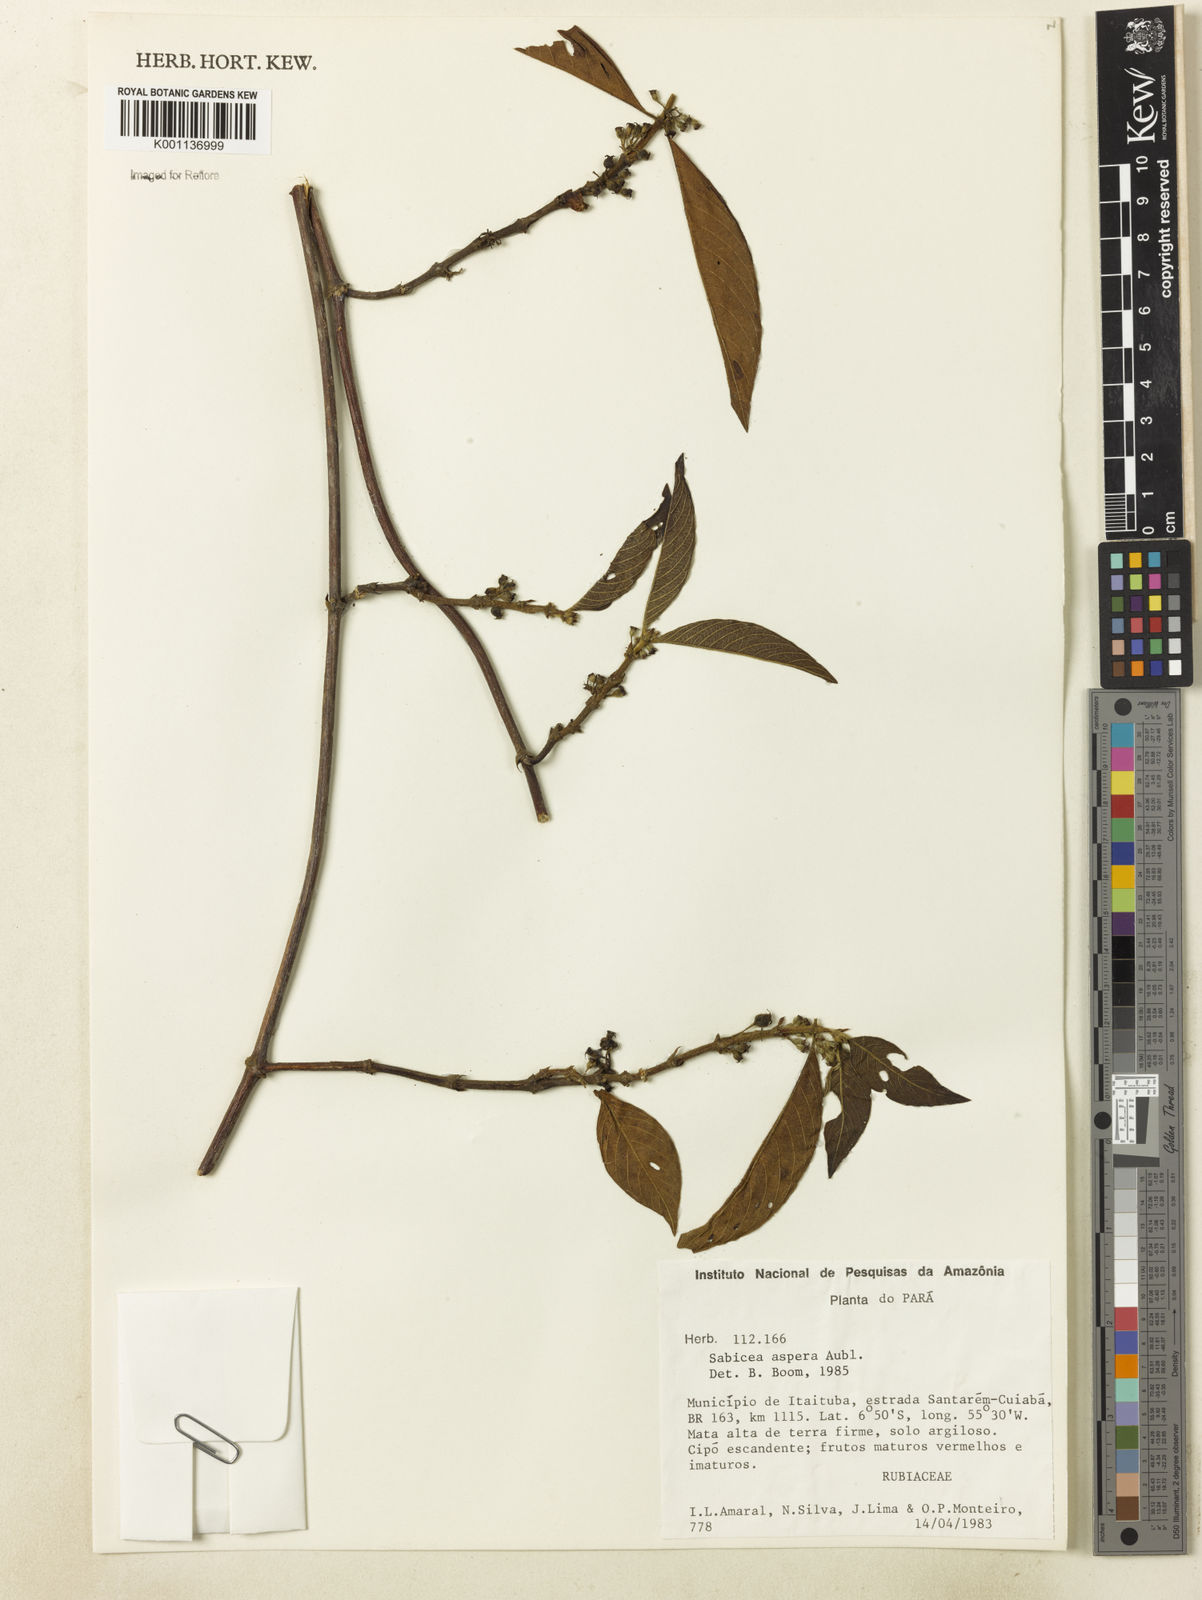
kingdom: Plantae
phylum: Tracheophyta
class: Magnoliopsida
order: Gentianales
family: Rubiaceae
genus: Sabicea
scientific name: Sabicea aspera
